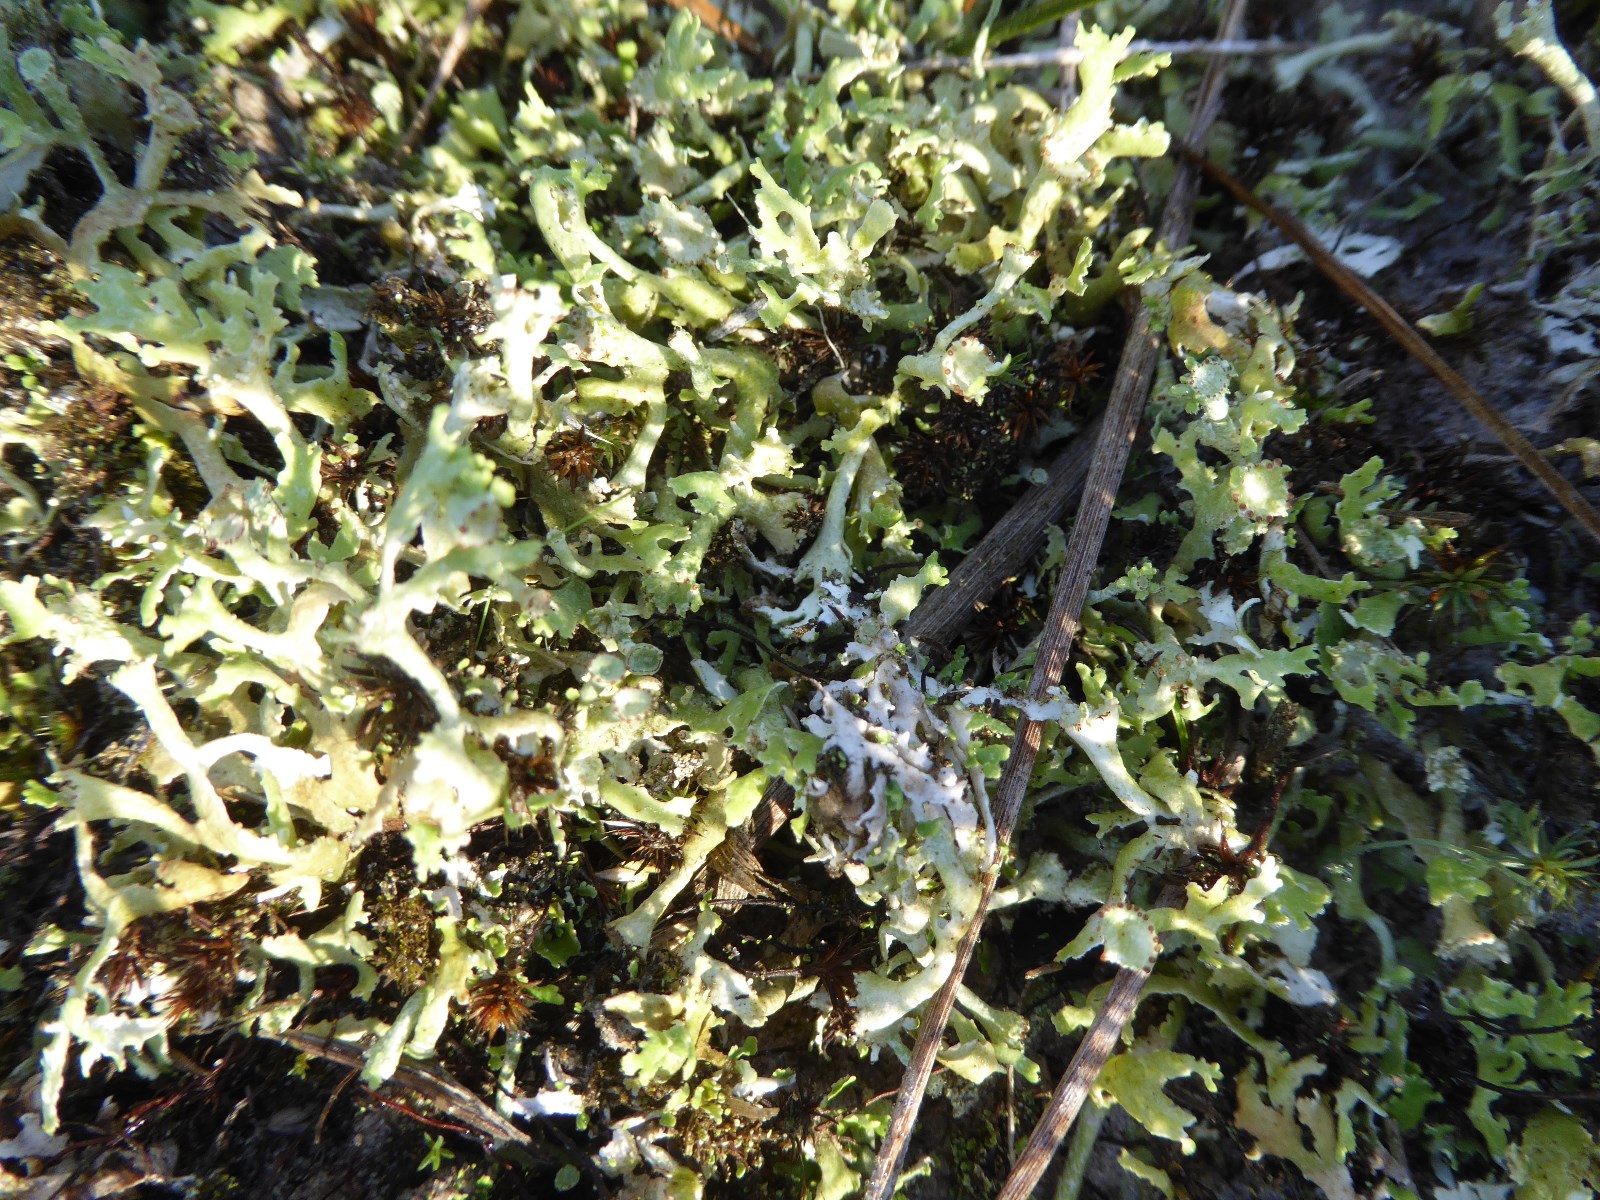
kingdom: Fungi
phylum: Ascomycota
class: Lecanoromycetes
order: Lecanorales
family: Cladoniaceae
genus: Cladonia
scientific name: Cladonia foliacea
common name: fliget bægerlav
